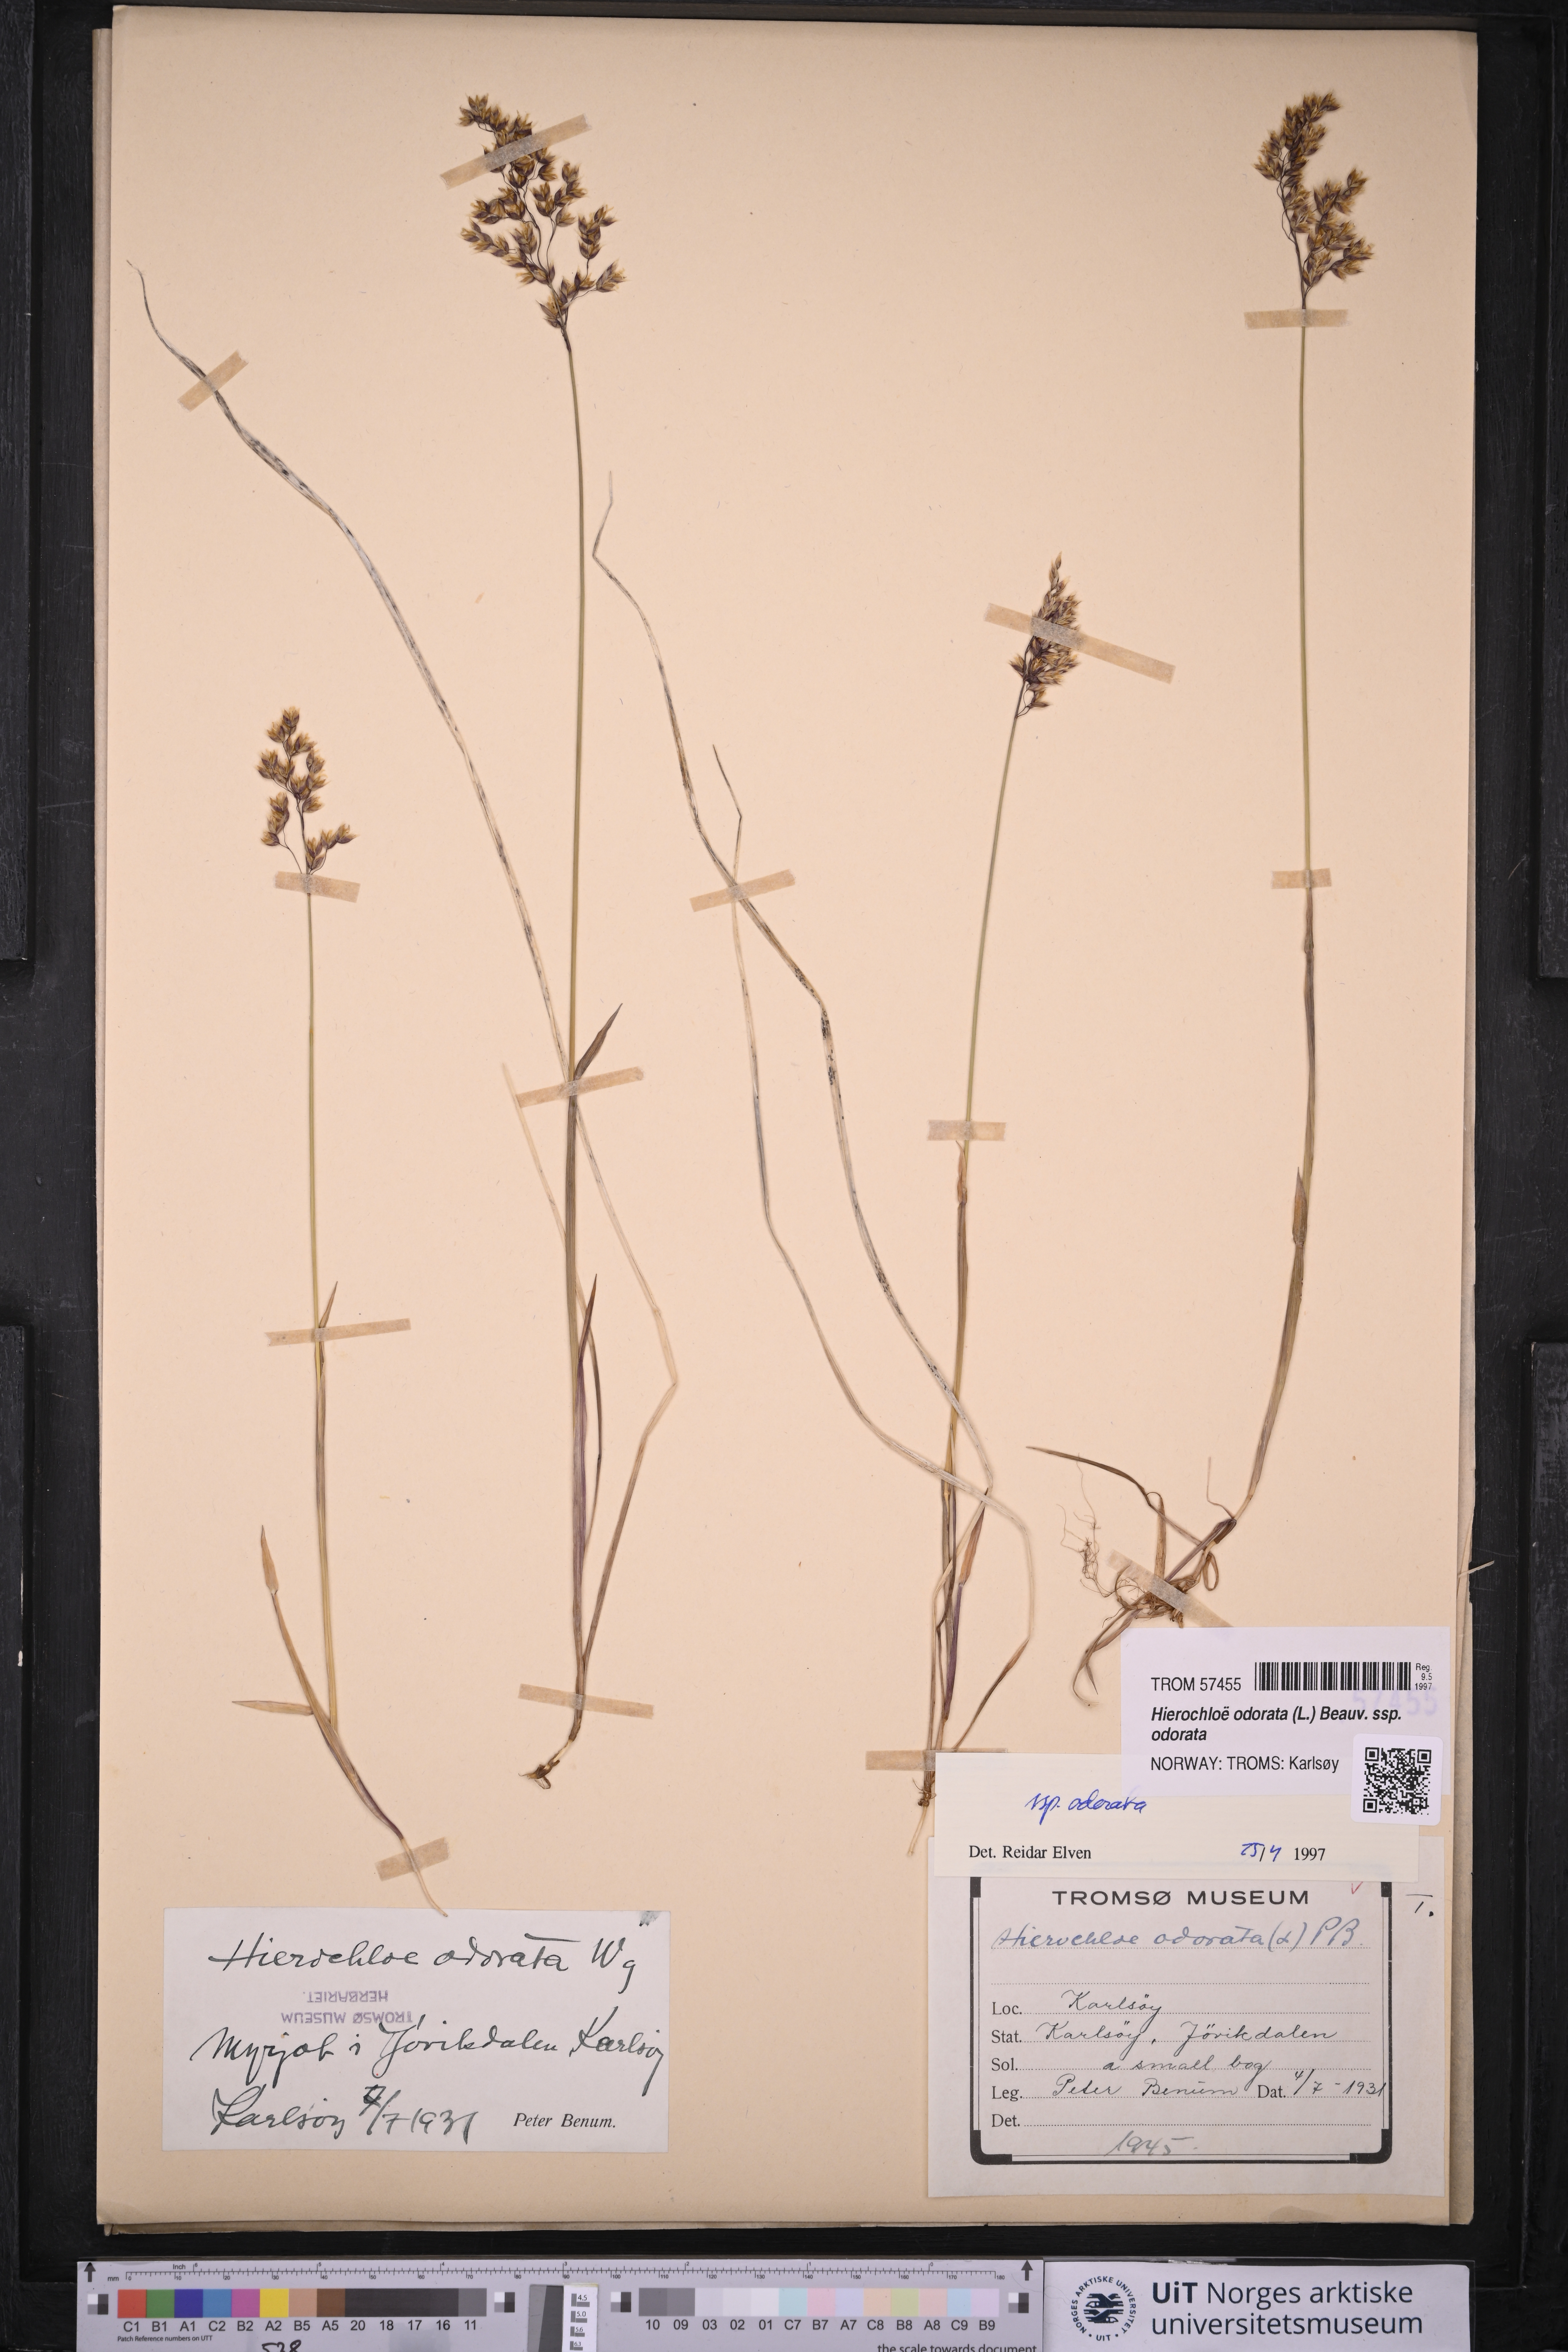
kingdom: Plantae
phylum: Tracheophyta
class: Liliopsida
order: Poales
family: Poaceae
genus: Anthoxanthum
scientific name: Anthoxanthum nitens
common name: Holy grass
